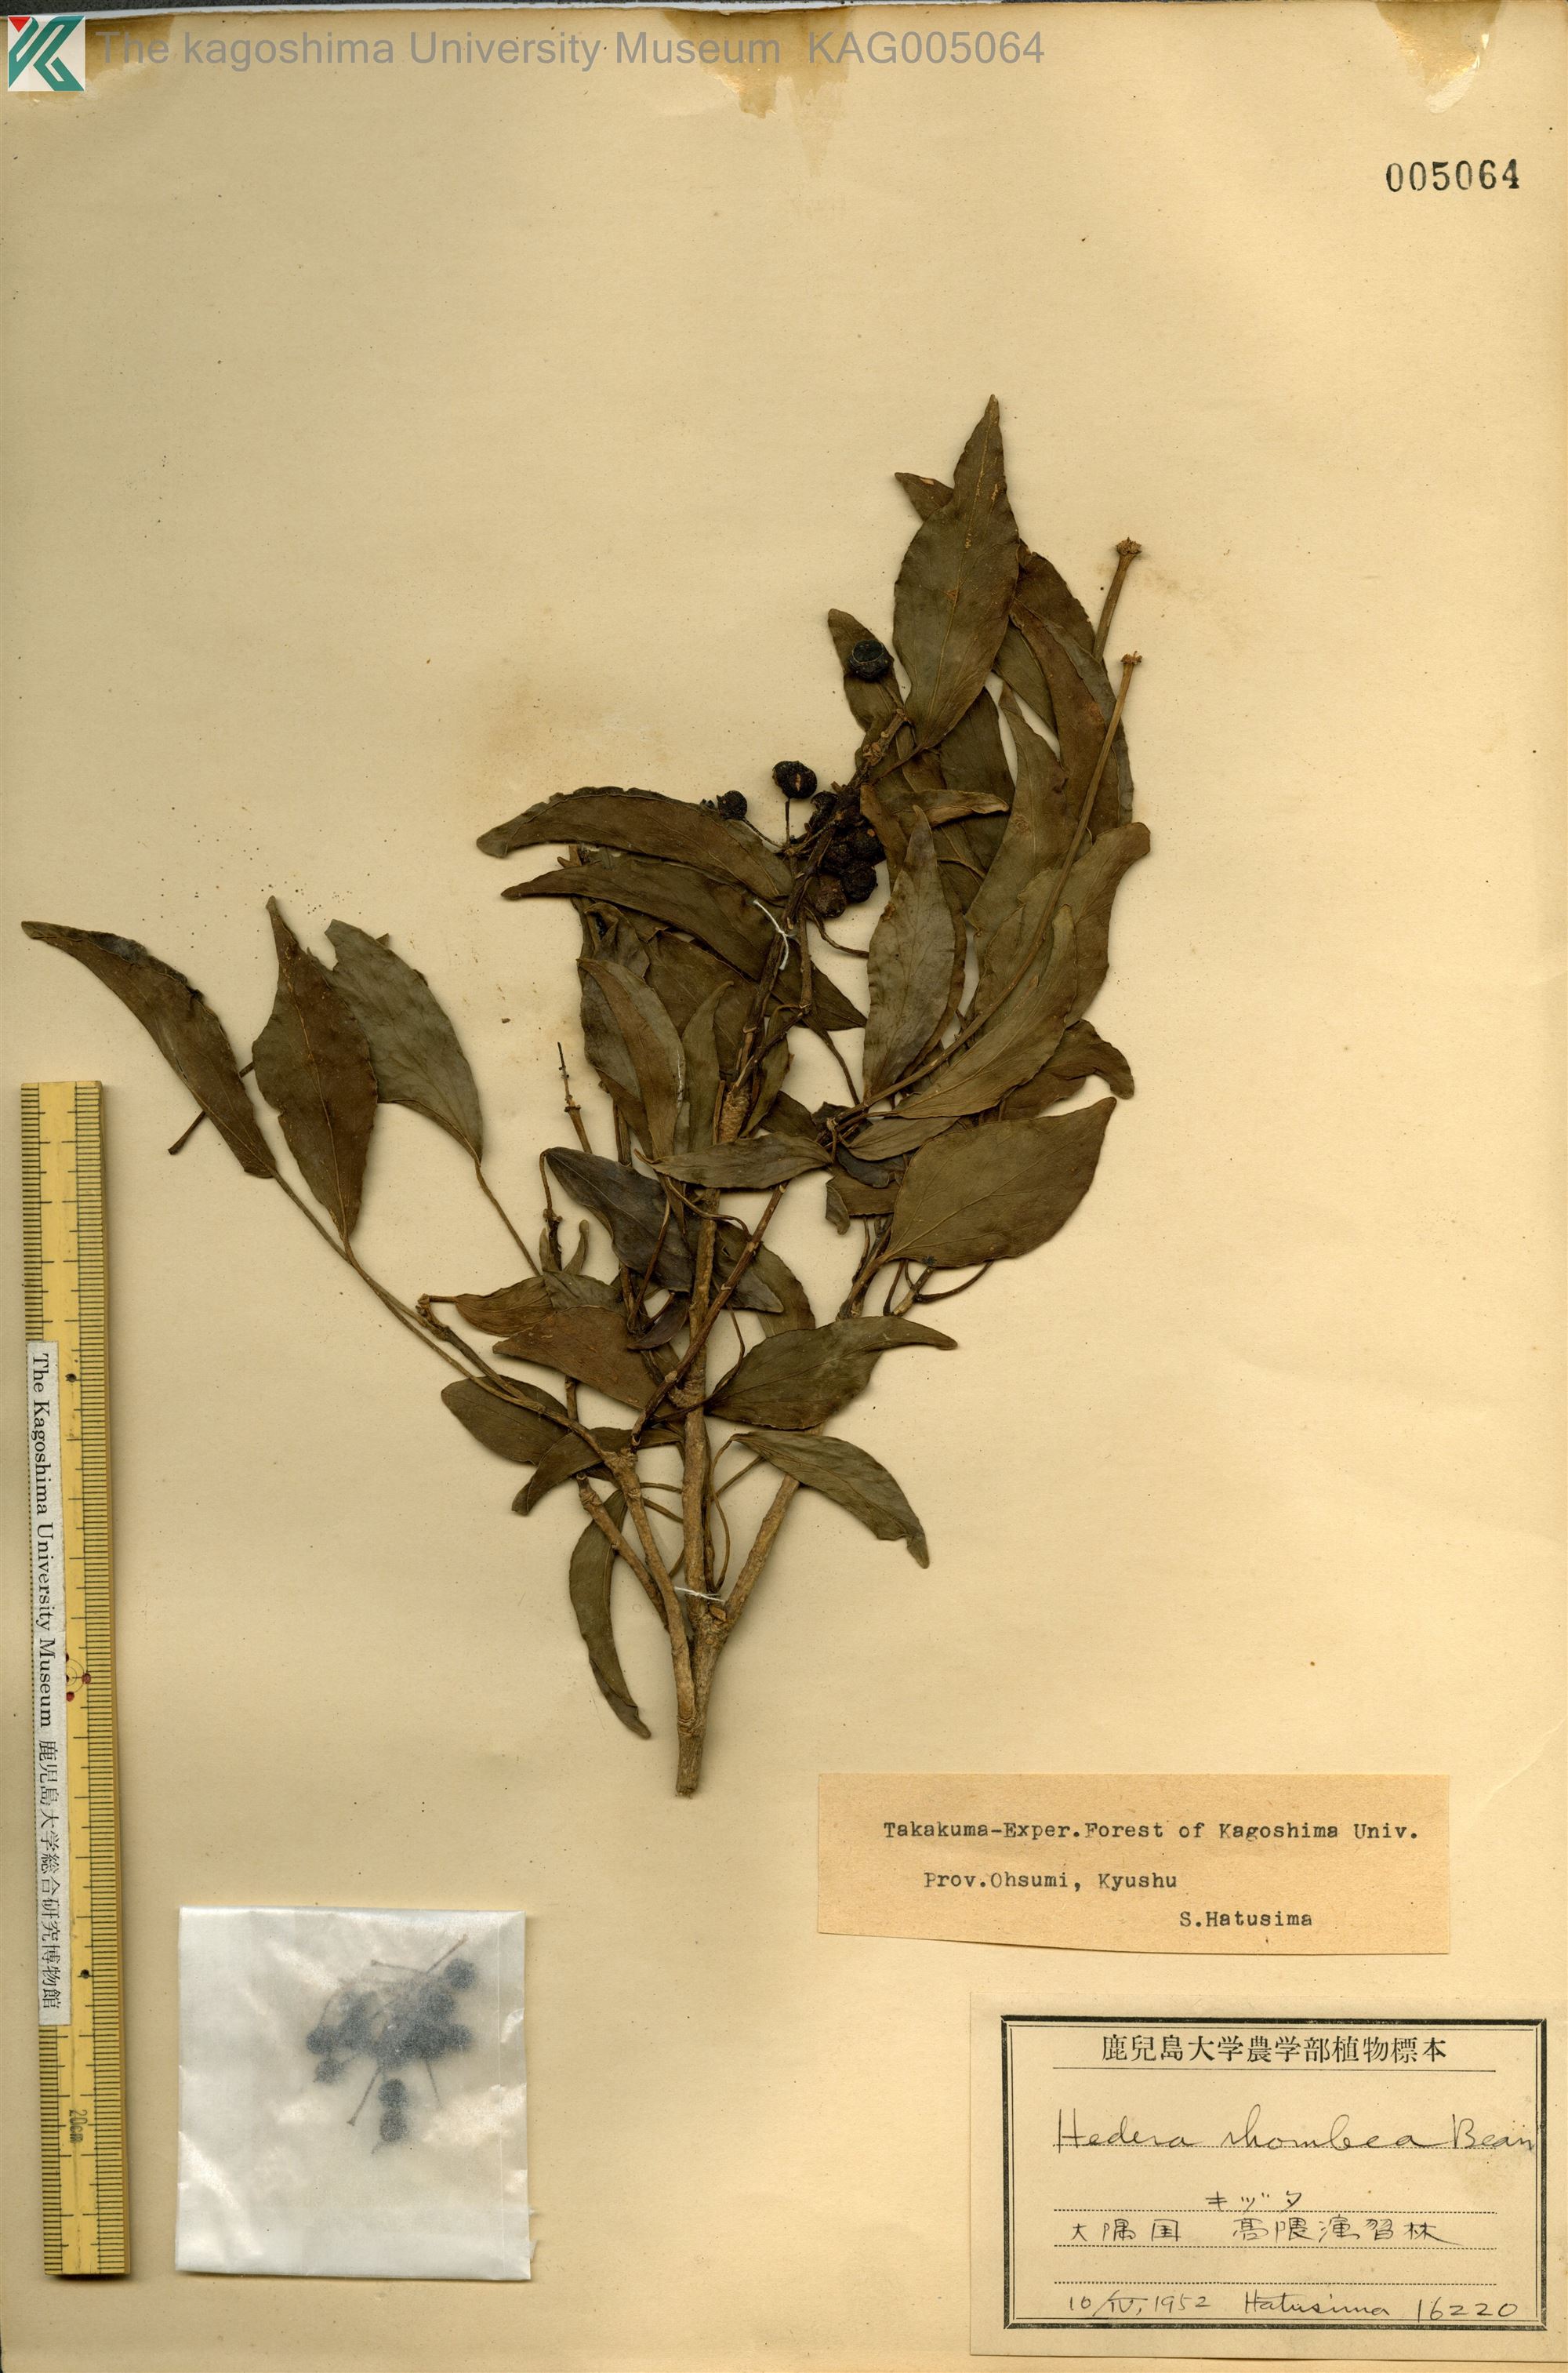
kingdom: Plantae
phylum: Tracheophyta
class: Magnoliopsida
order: Apiales
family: Araliaceae
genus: Hedera
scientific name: Hedera rhombea
